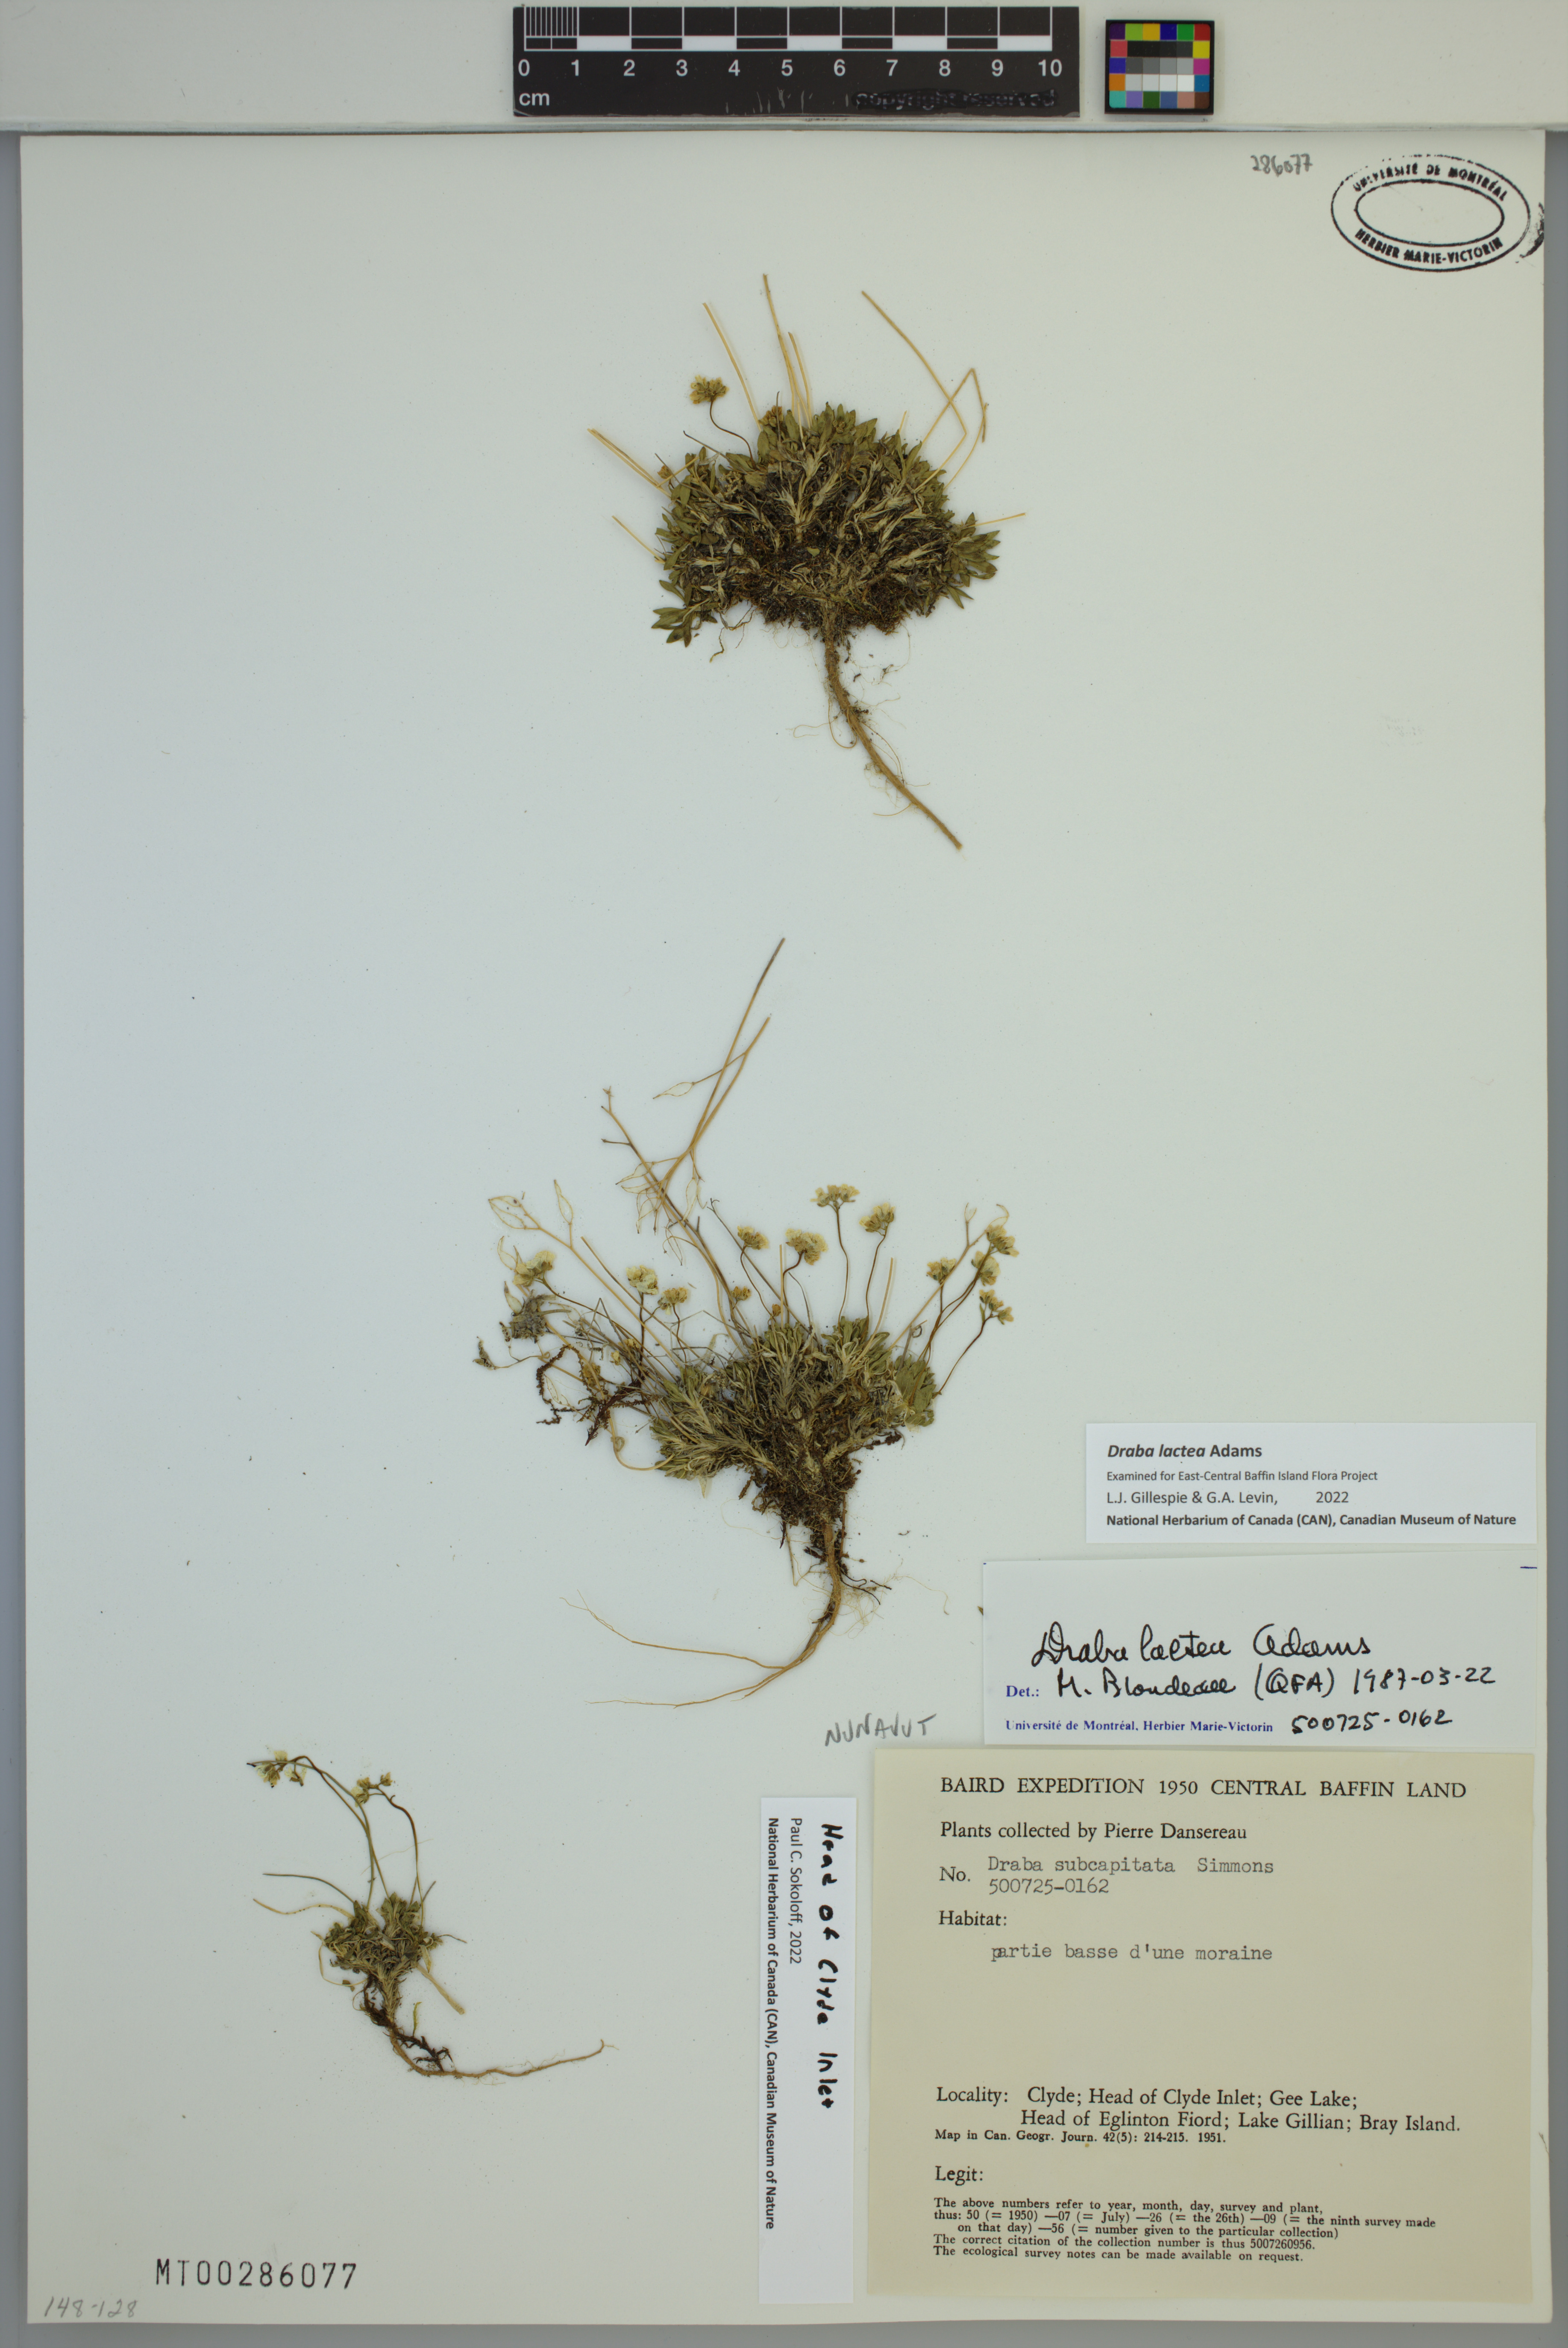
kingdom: Plantae
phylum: Tracheophyta
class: Magnoliopsida
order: Brassicales
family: Brassicaceae
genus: Draba
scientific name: Draba lactea
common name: Milky draba
